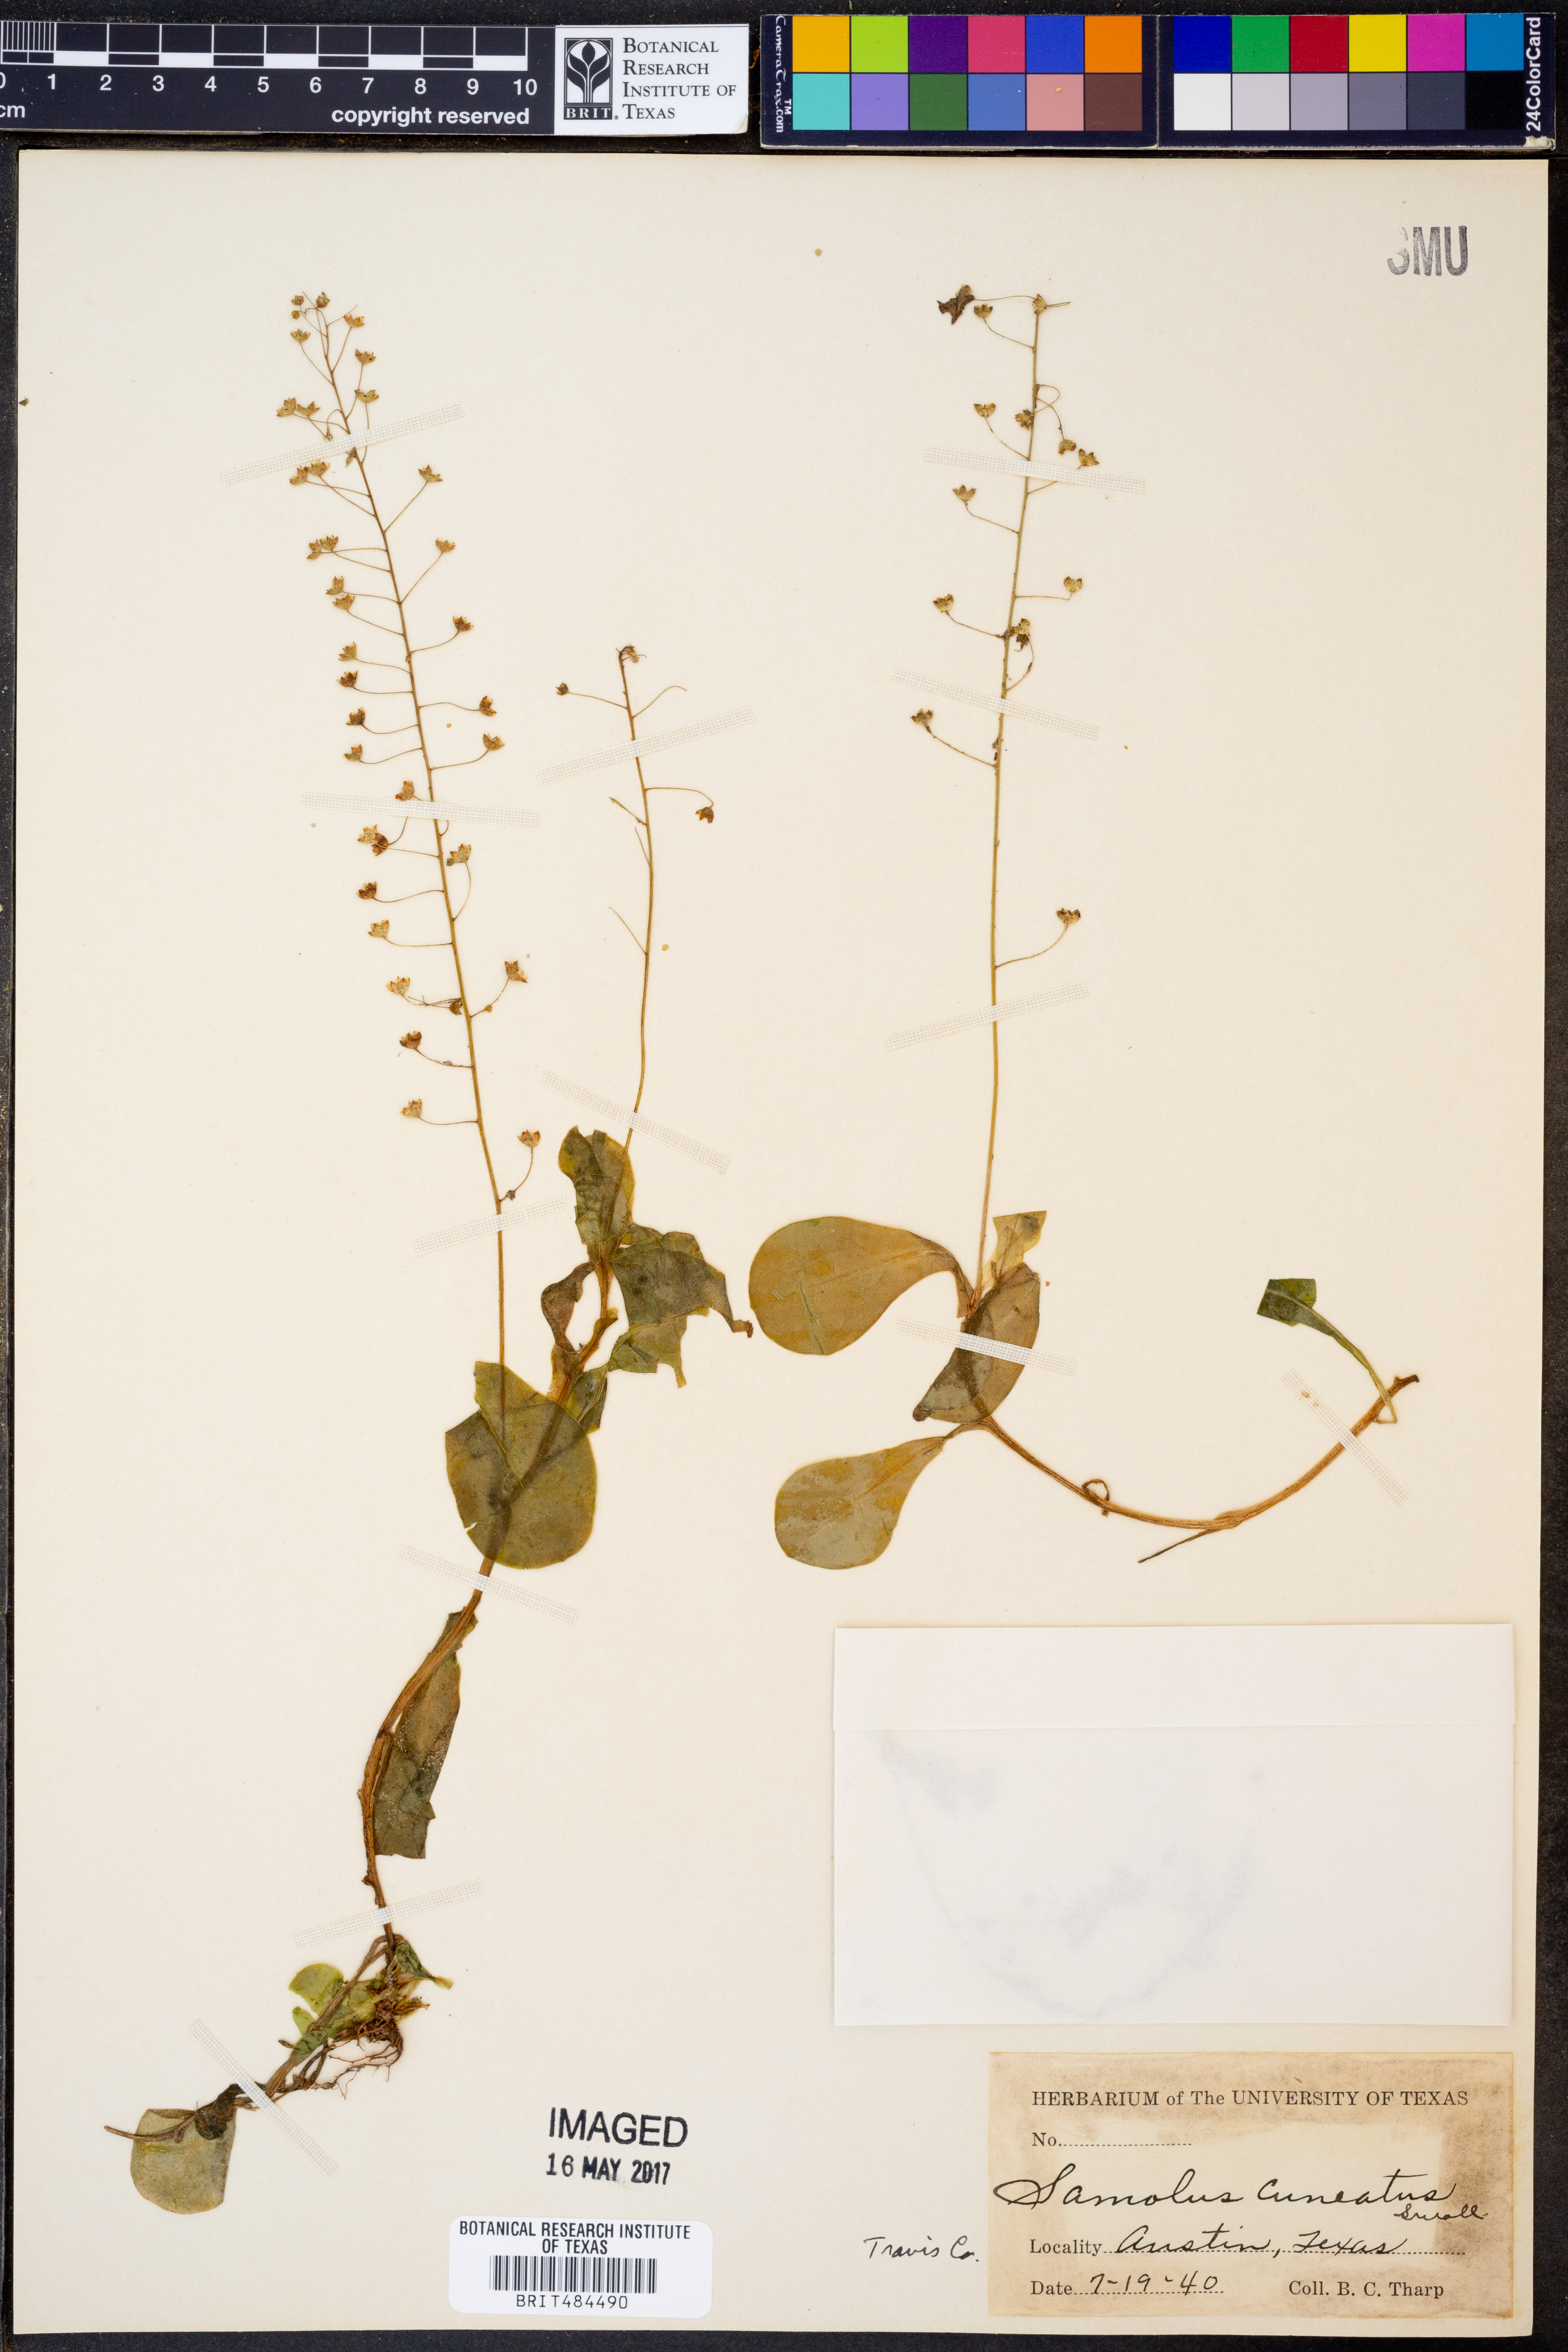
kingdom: Plantae
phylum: Tracheophyta
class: Magnoliopsida
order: Ericales
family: Primulaceae
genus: Samolus
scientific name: Samolus ebracteatus
